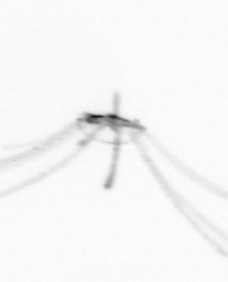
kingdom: Animalia
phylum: Cnidaria
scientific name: Cnidaria
